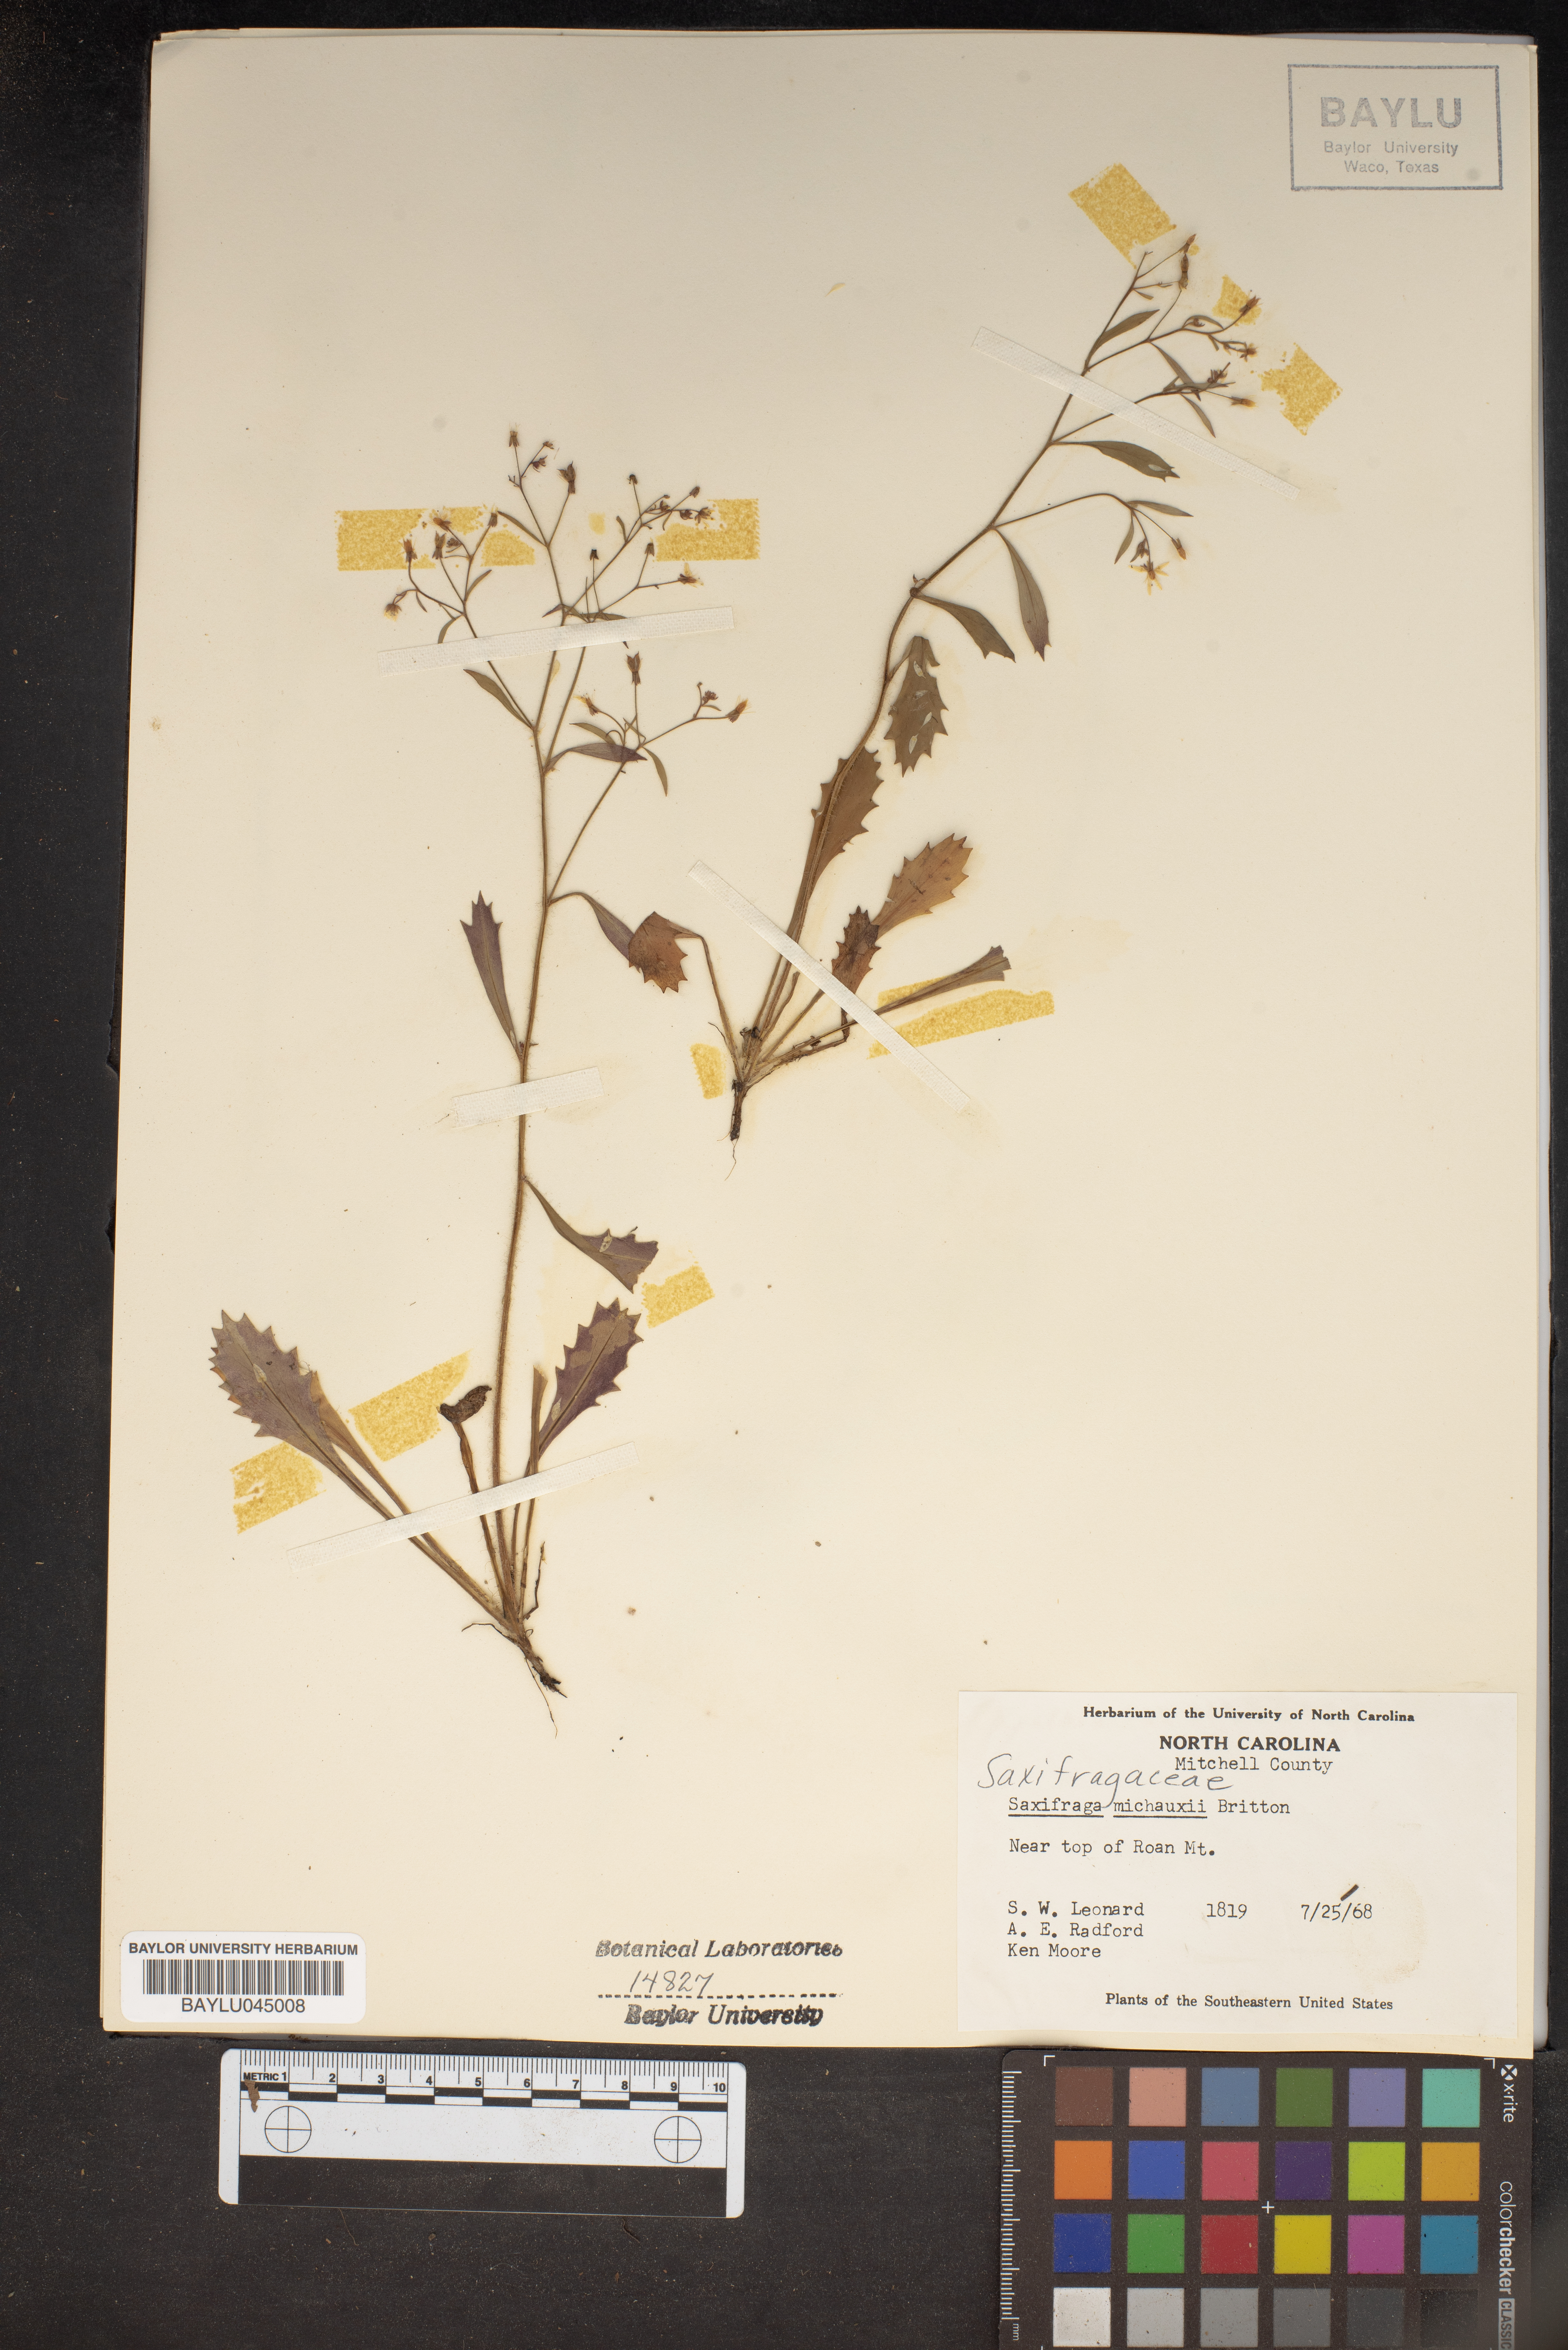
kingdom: Plantae
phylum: Tracheophyta
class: Magnoliopsida
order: Saxifragales
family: Saxifragaceae
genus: Micranthes
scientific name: Micranthes petiolaris
